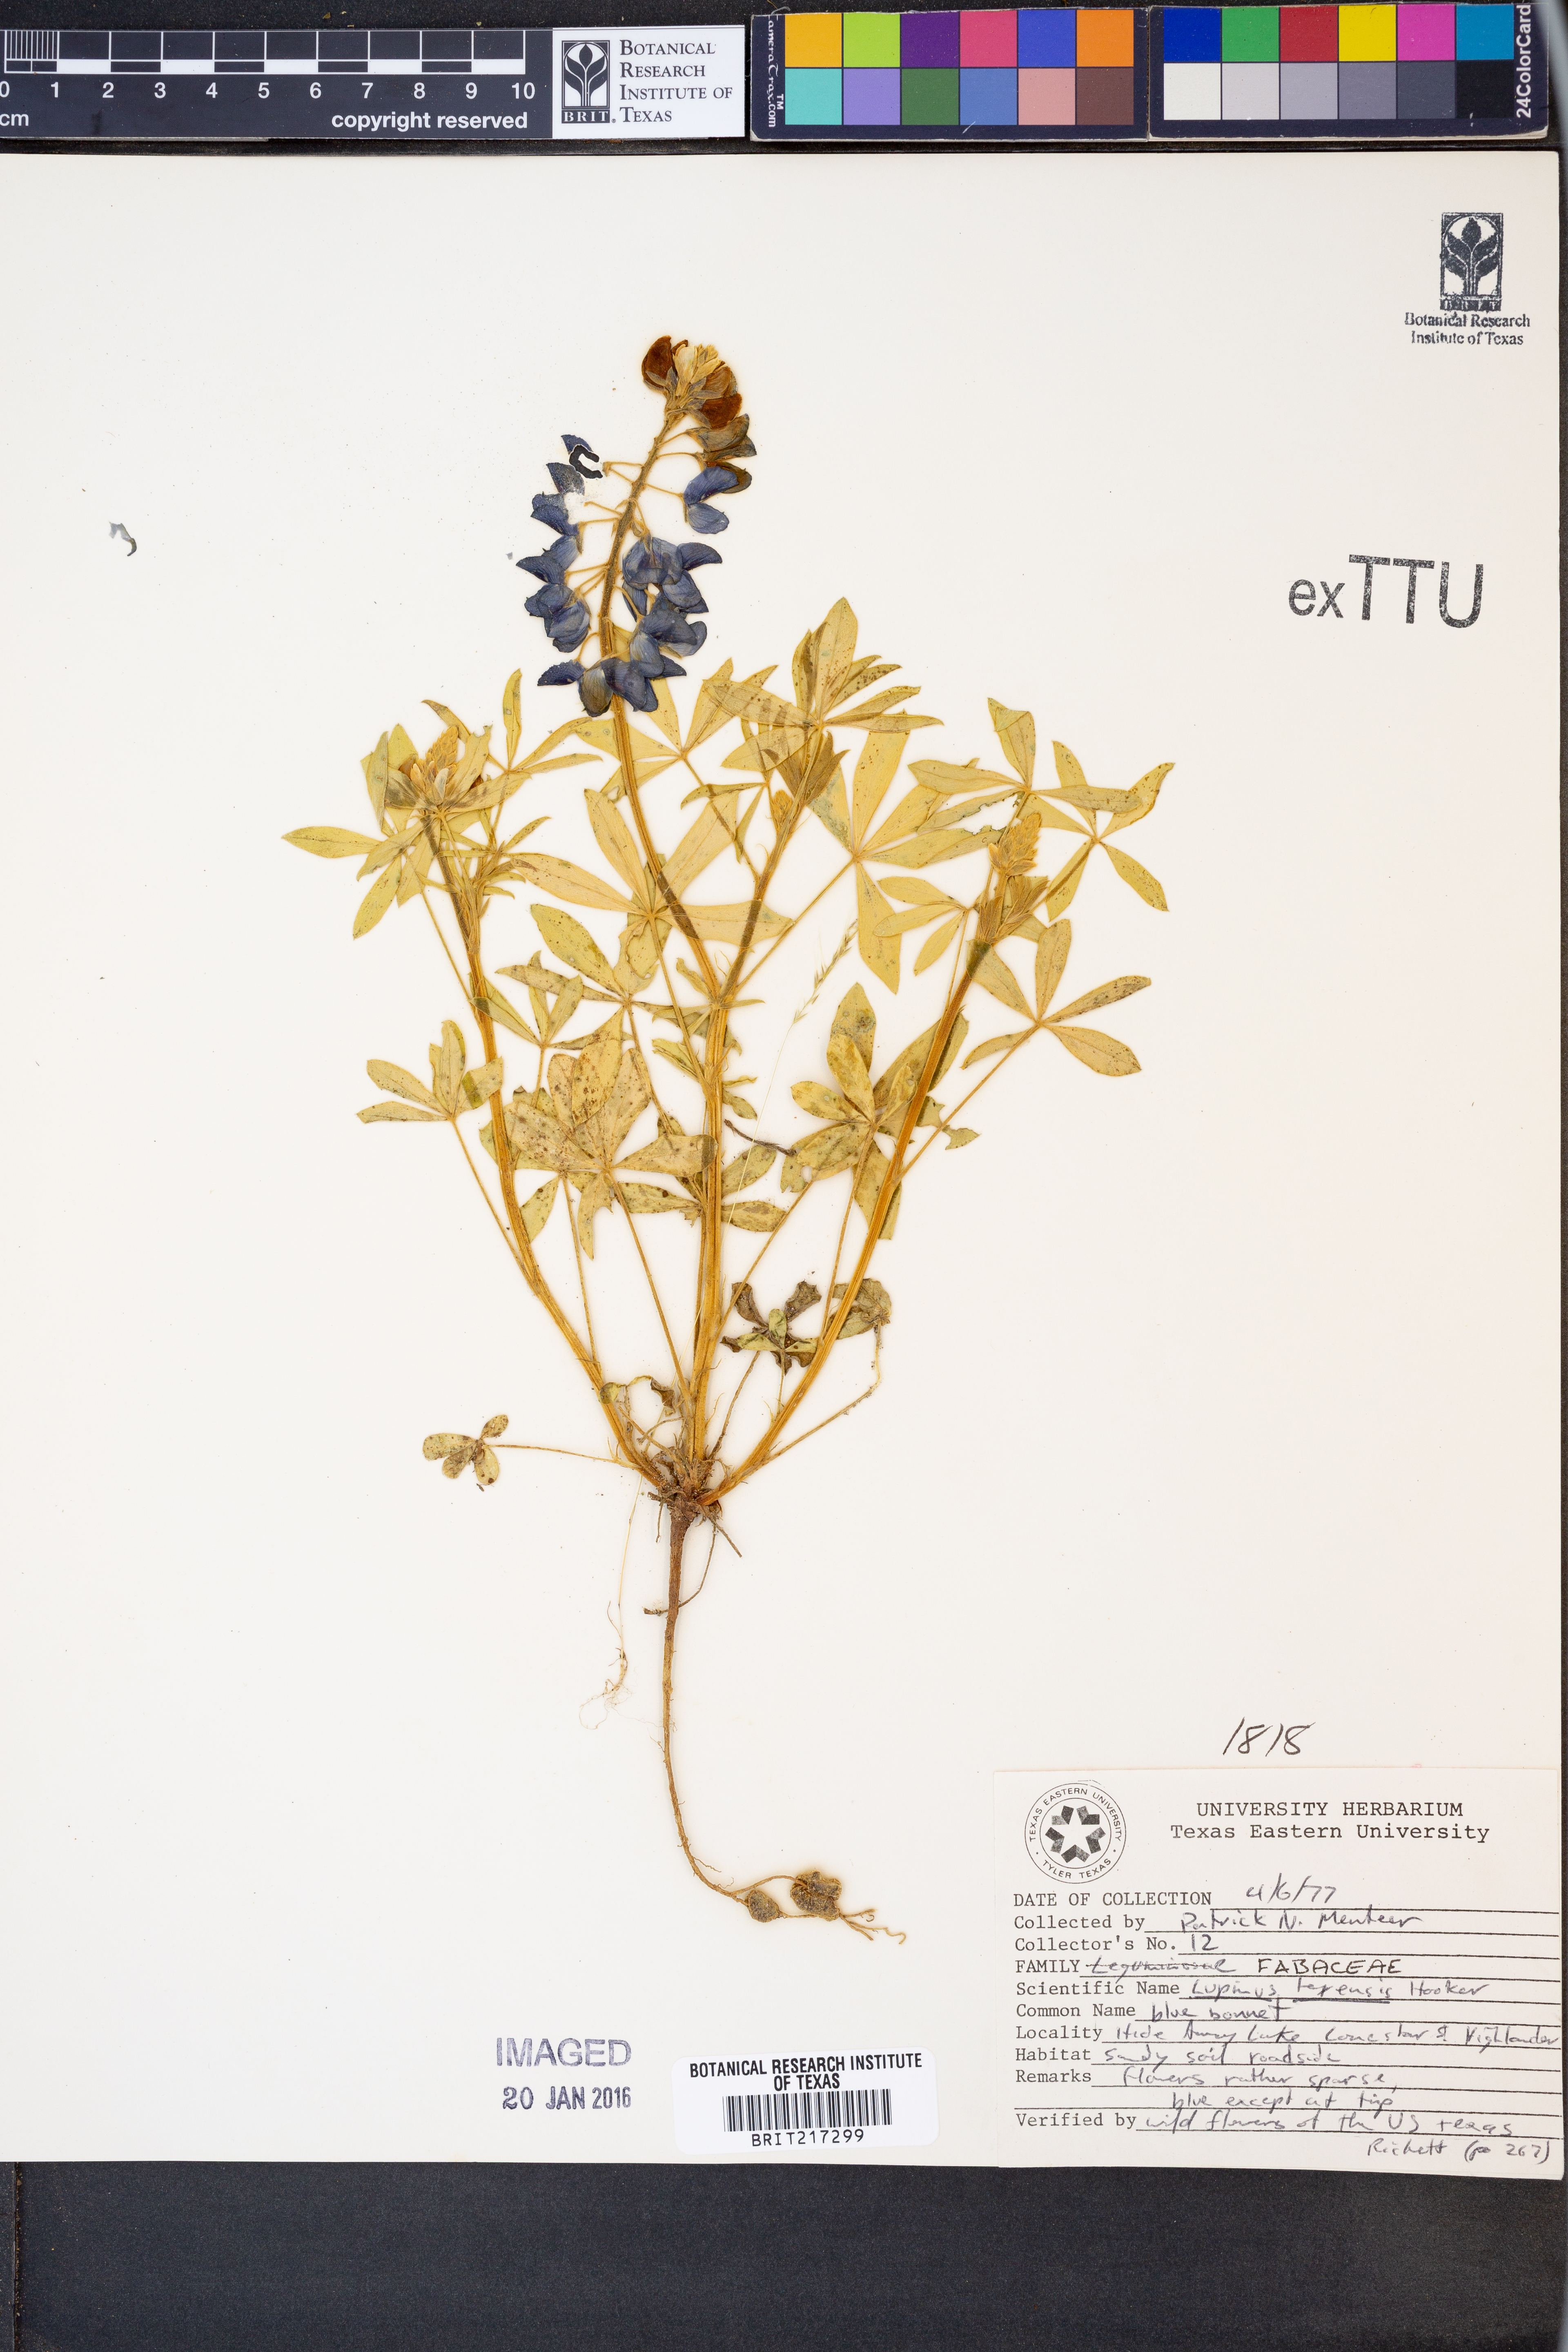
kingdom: Plantae
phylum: Tracheophyta
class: Magnoliopsida
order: Fabales
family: Fabaceae
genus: Lupinus
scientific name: Lupinus texensis
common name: Texas bluebonnet
